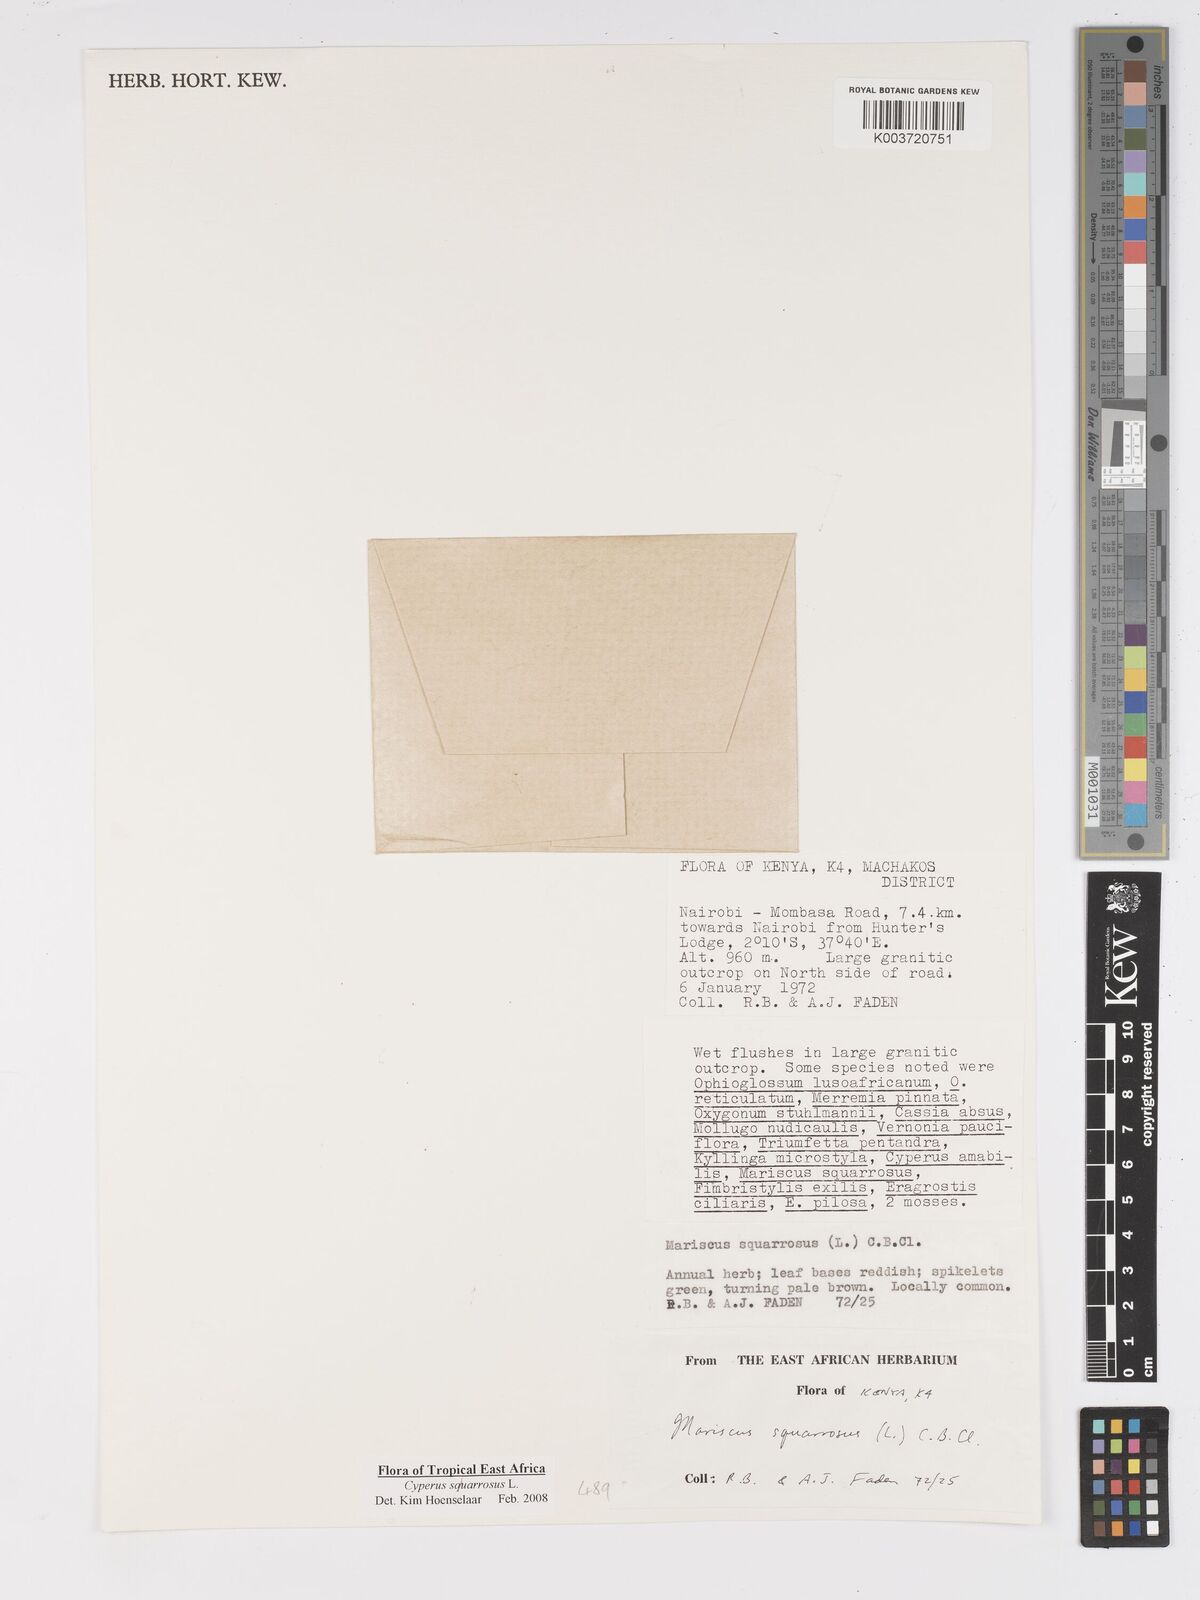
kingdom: Plantae
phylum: Tracheophyta
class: Liliopsida
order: Poales
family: Cyperaceae
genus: Cyperus
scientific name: Cyperus squarrosus
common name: Awned cyperus
